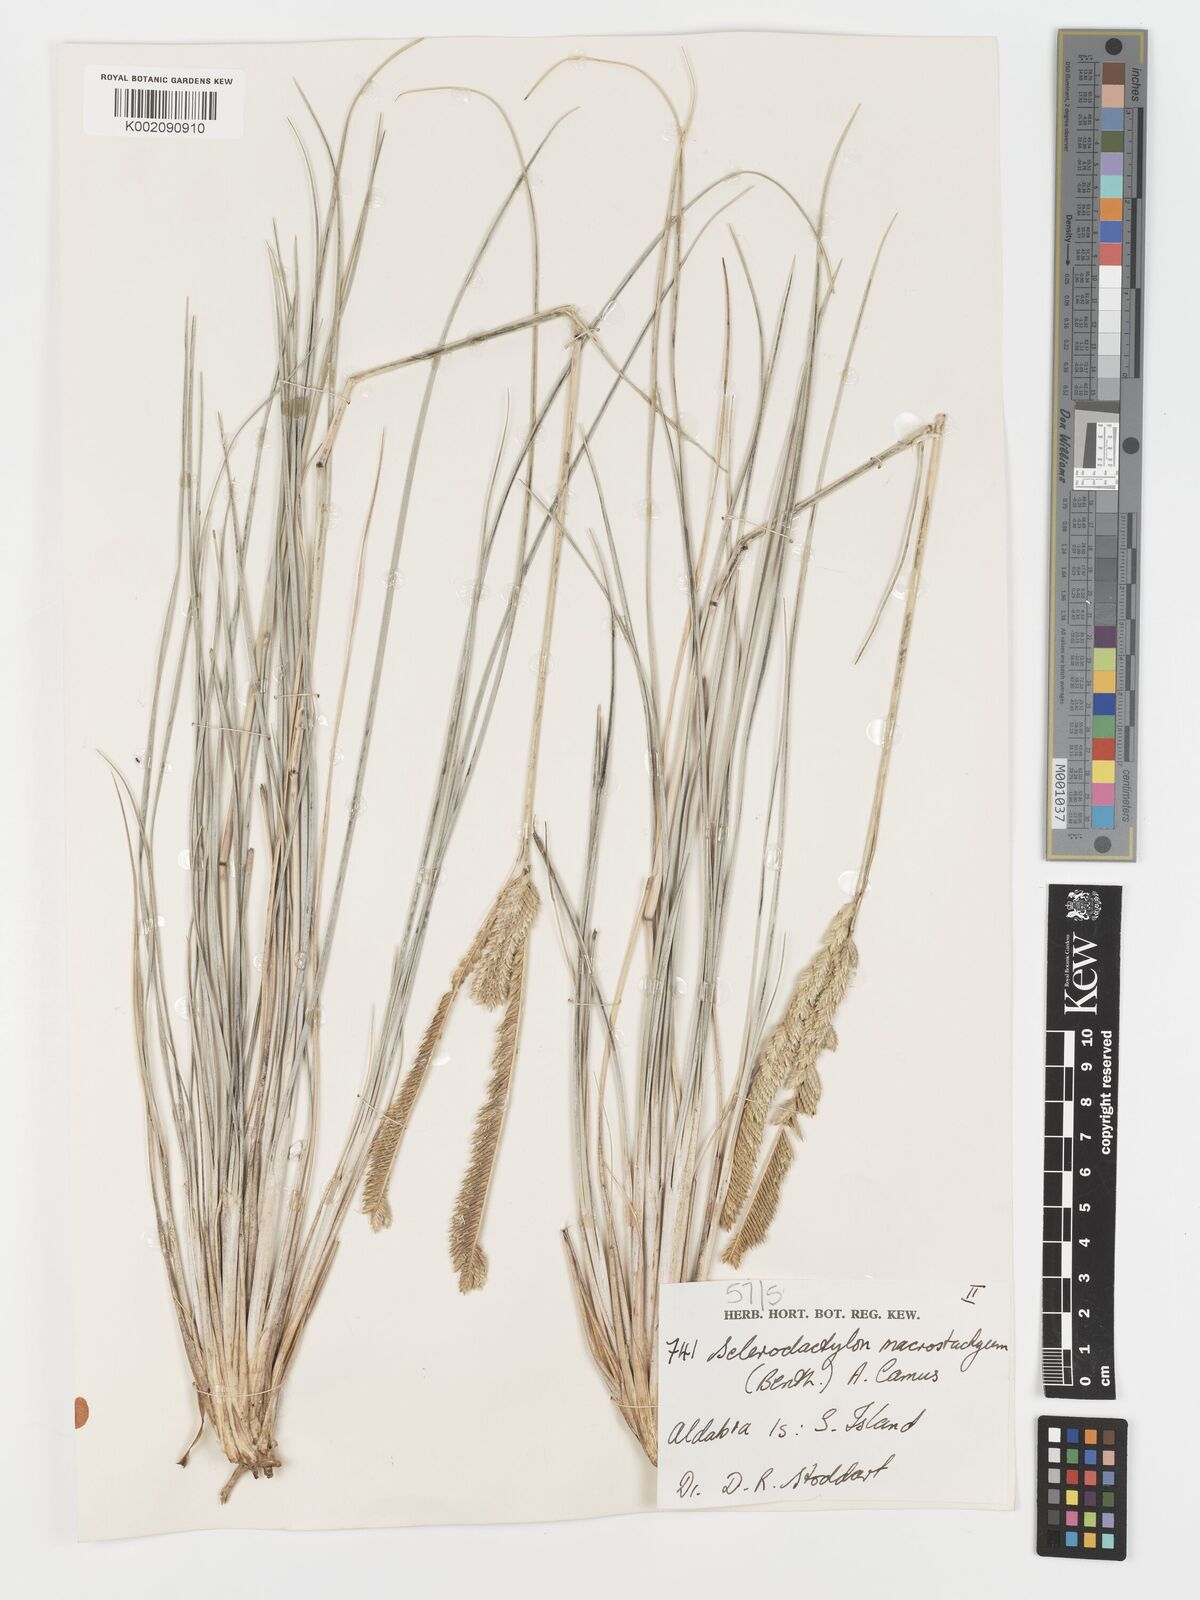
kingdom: Plantae
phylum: Tracheophyta
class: Liliopsida
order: Poales
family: Poaceae
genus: Sclerodactylon
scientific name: Sclerodactylon macrostachyum
